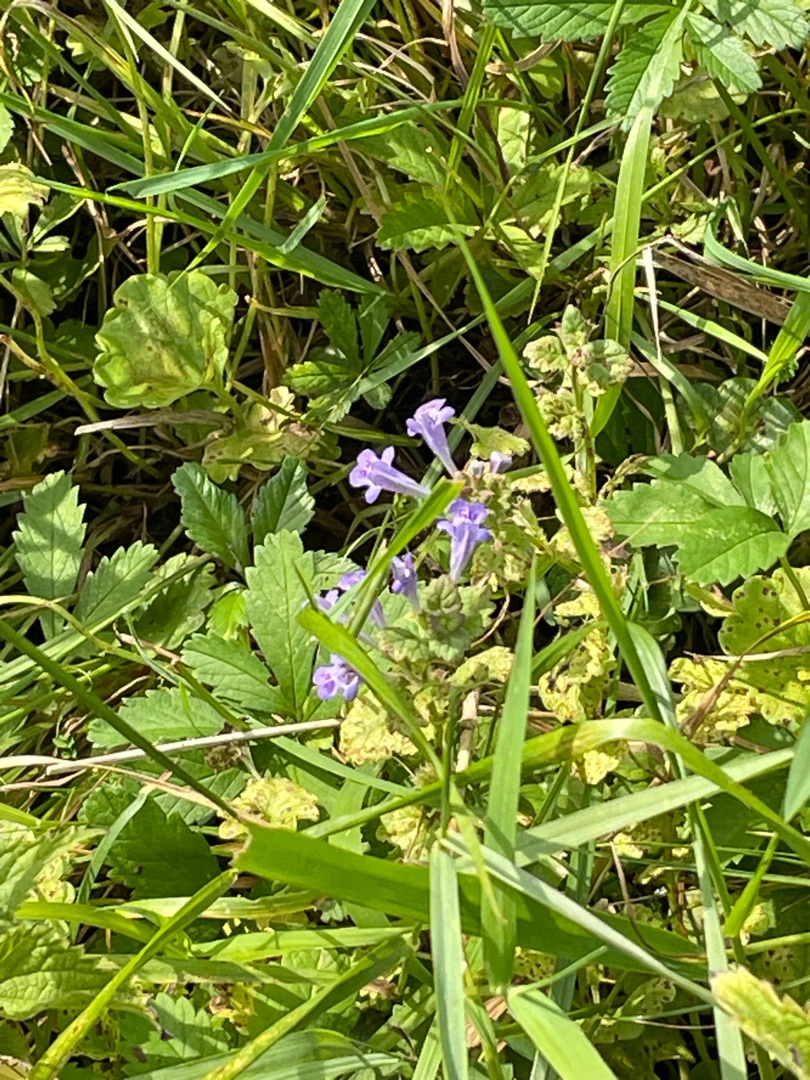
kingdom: Plantae
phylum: Tracheophyta
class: Magnoliopsida
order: Lamiales
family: Lamiaceae
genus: Glechoma
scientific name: Glechoma hederacea
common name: Korsknap
